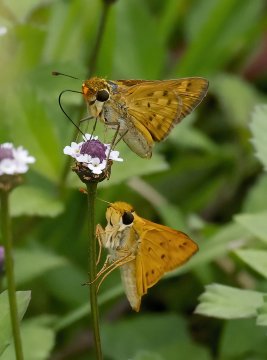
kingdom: Animalia
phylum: Arthropoda
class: Insecta
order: Lepidoptera
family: Hesperiidae
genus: Hylephila
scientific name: Hylephila phyleus
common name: Fiery Skipper
